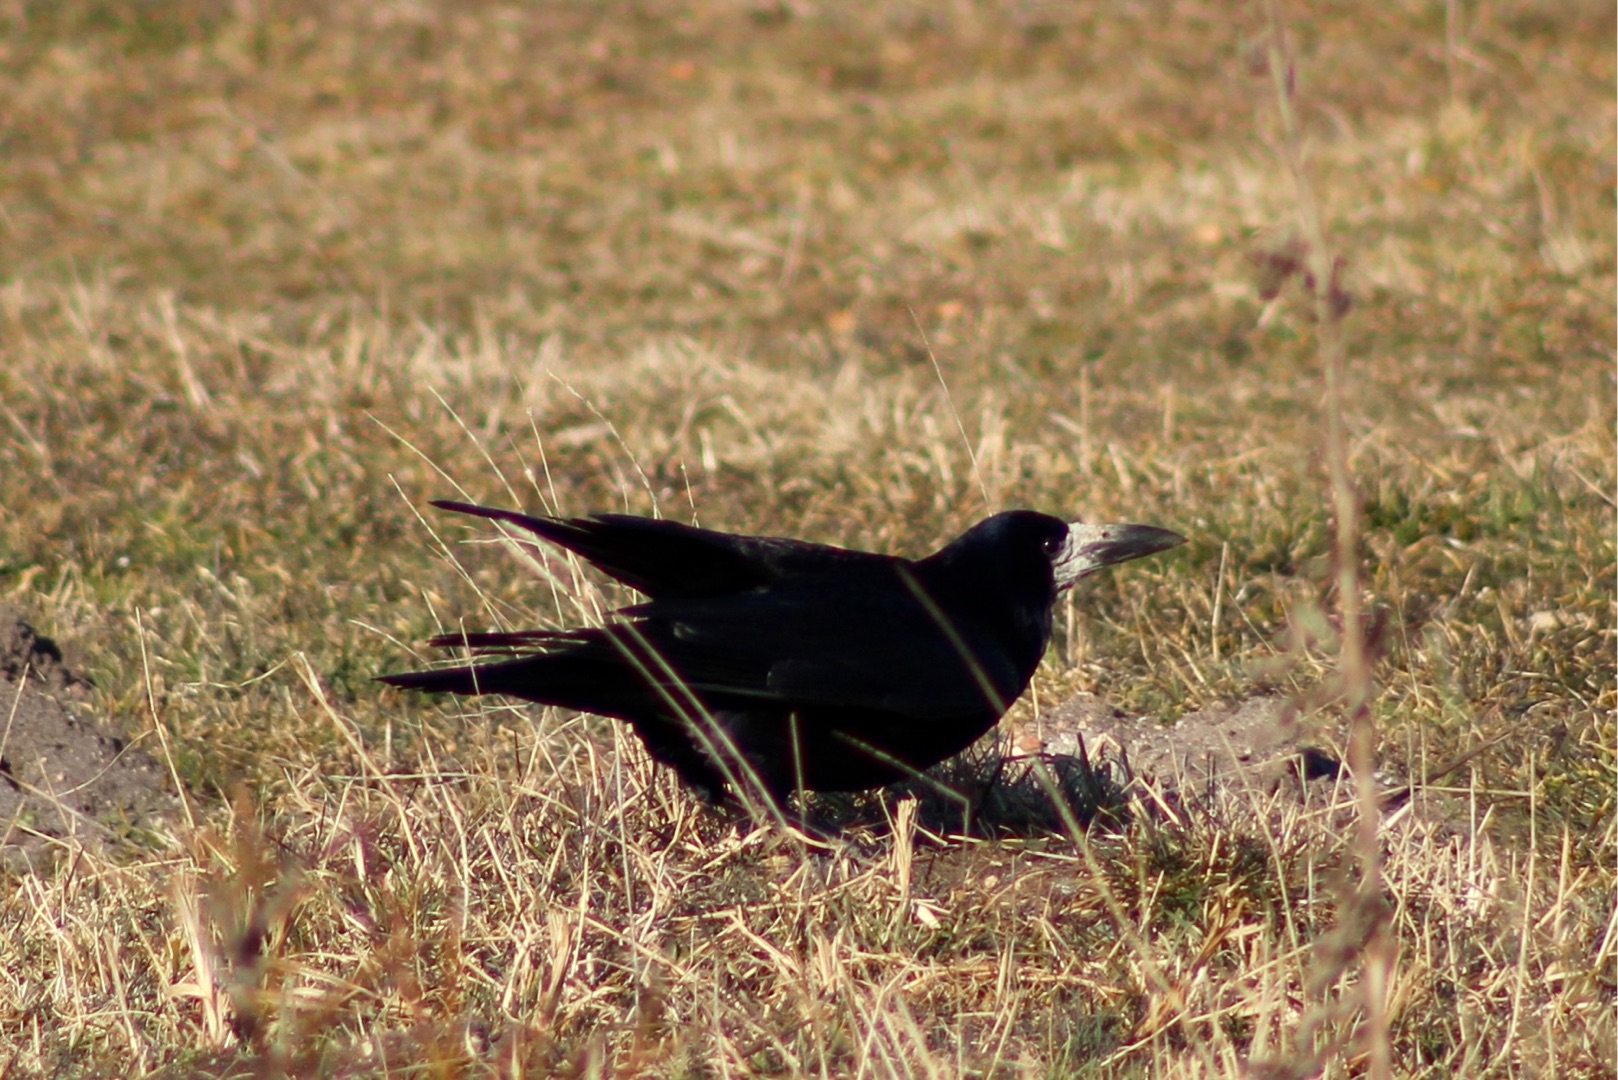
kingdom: Animalia
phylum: Chordata
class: Aves
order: Passeriformes
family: Corvidae
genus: Corvus
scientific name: Corvus frugilegus
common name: Råge
